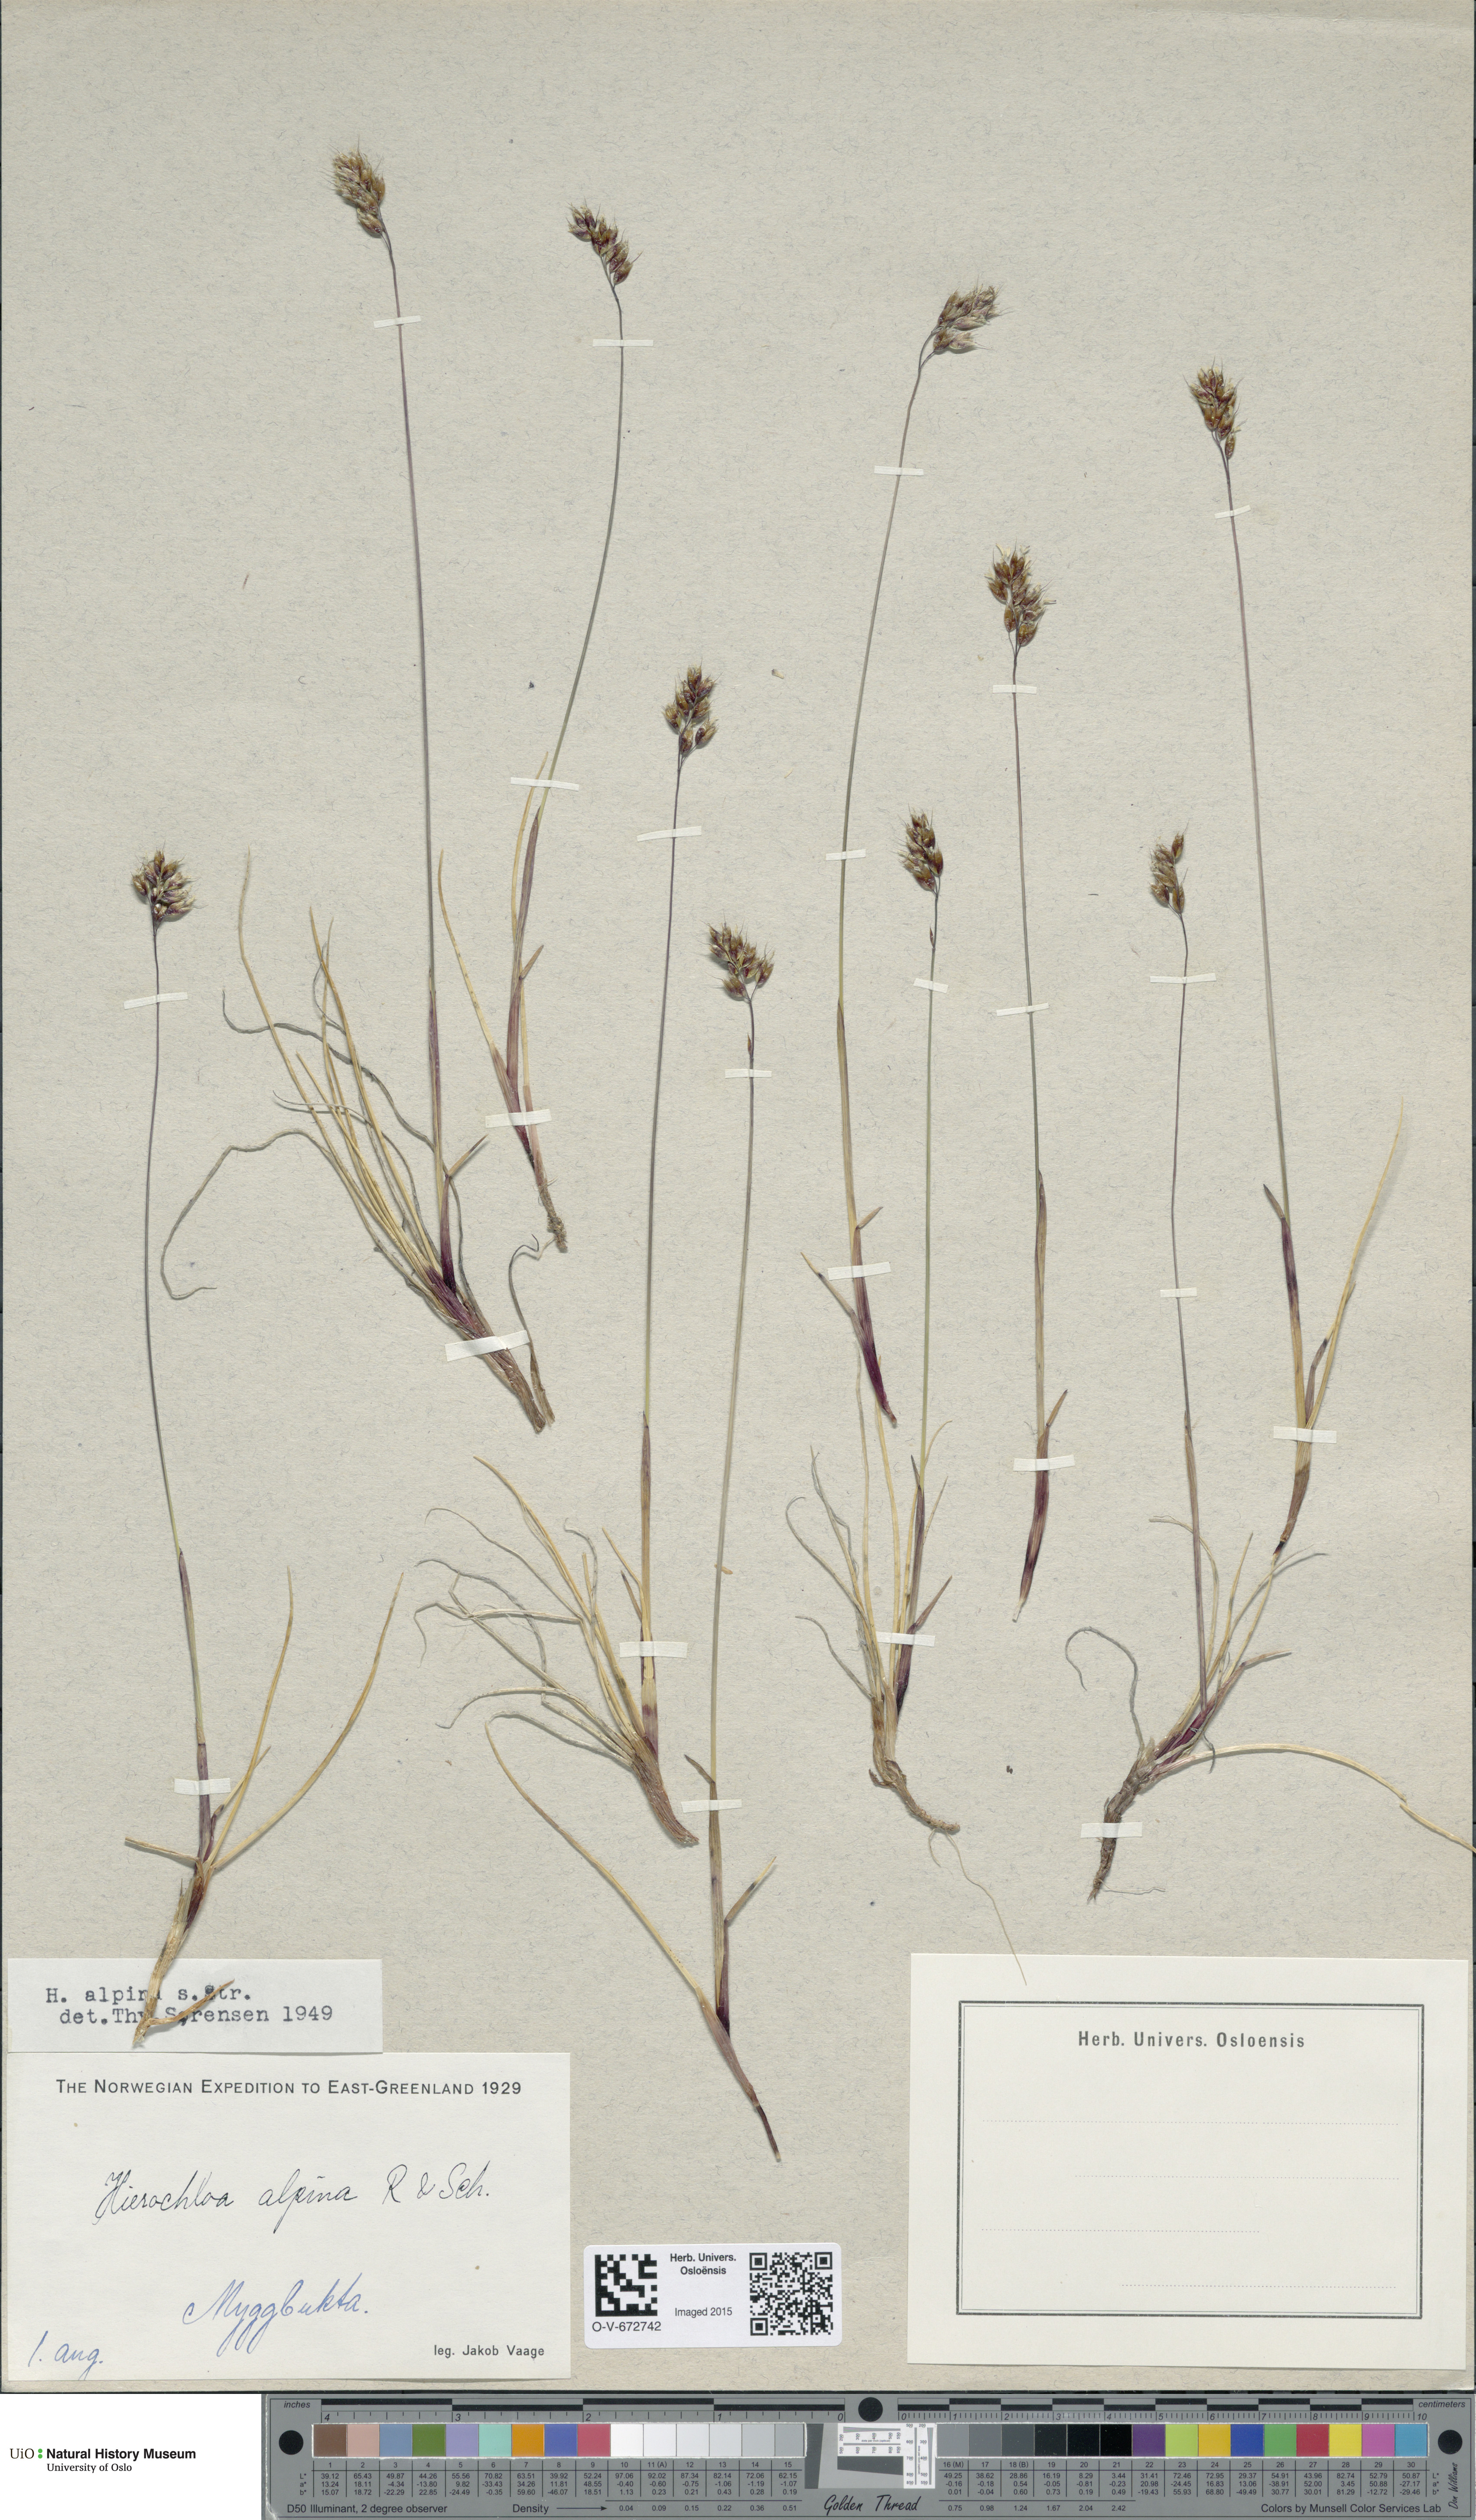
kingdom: Plantae
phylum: Tracheophyta
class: Liliopsida
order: Poales
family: Poaceae
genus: Anthoxanthum
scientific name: Anthoxanthum monticola
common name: Alpine sweetgrass
